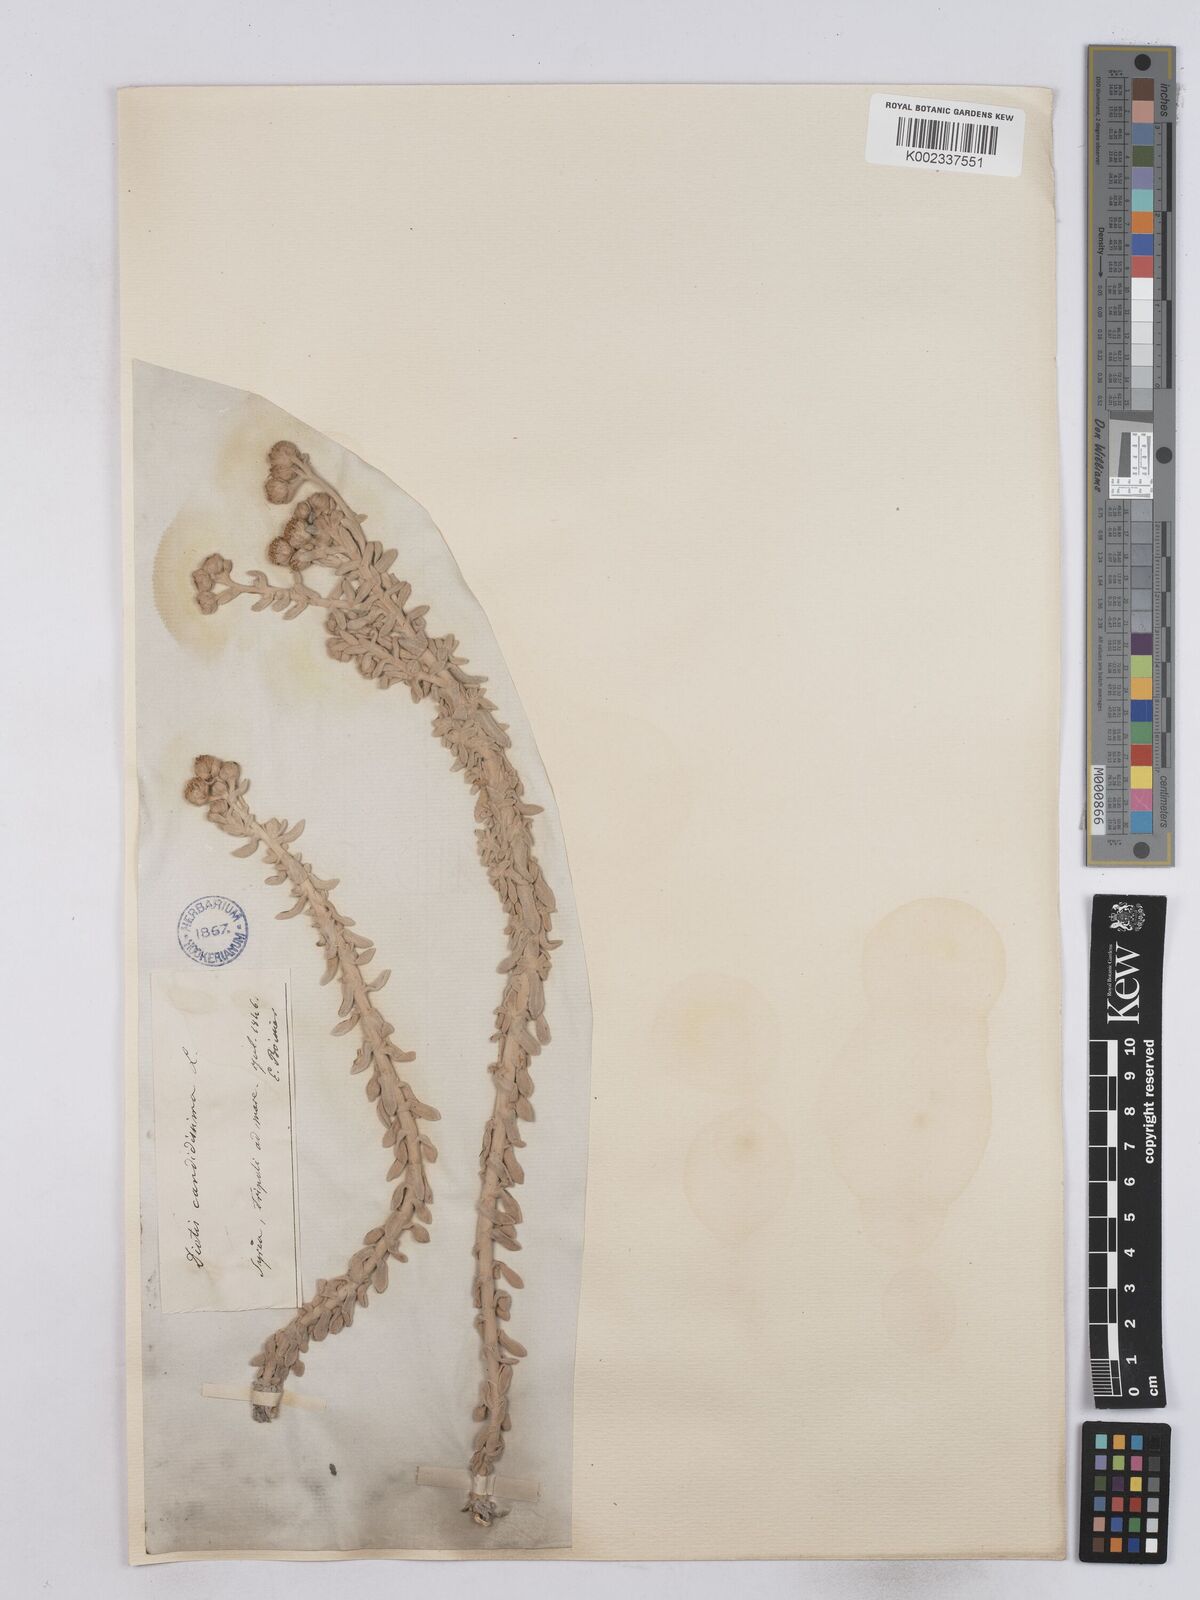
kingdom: Plantae
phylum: Tracheophyta
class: Magnoliopsida
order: Asterales
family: Asteraceae
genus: Achillea
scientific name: Achillea maritima
